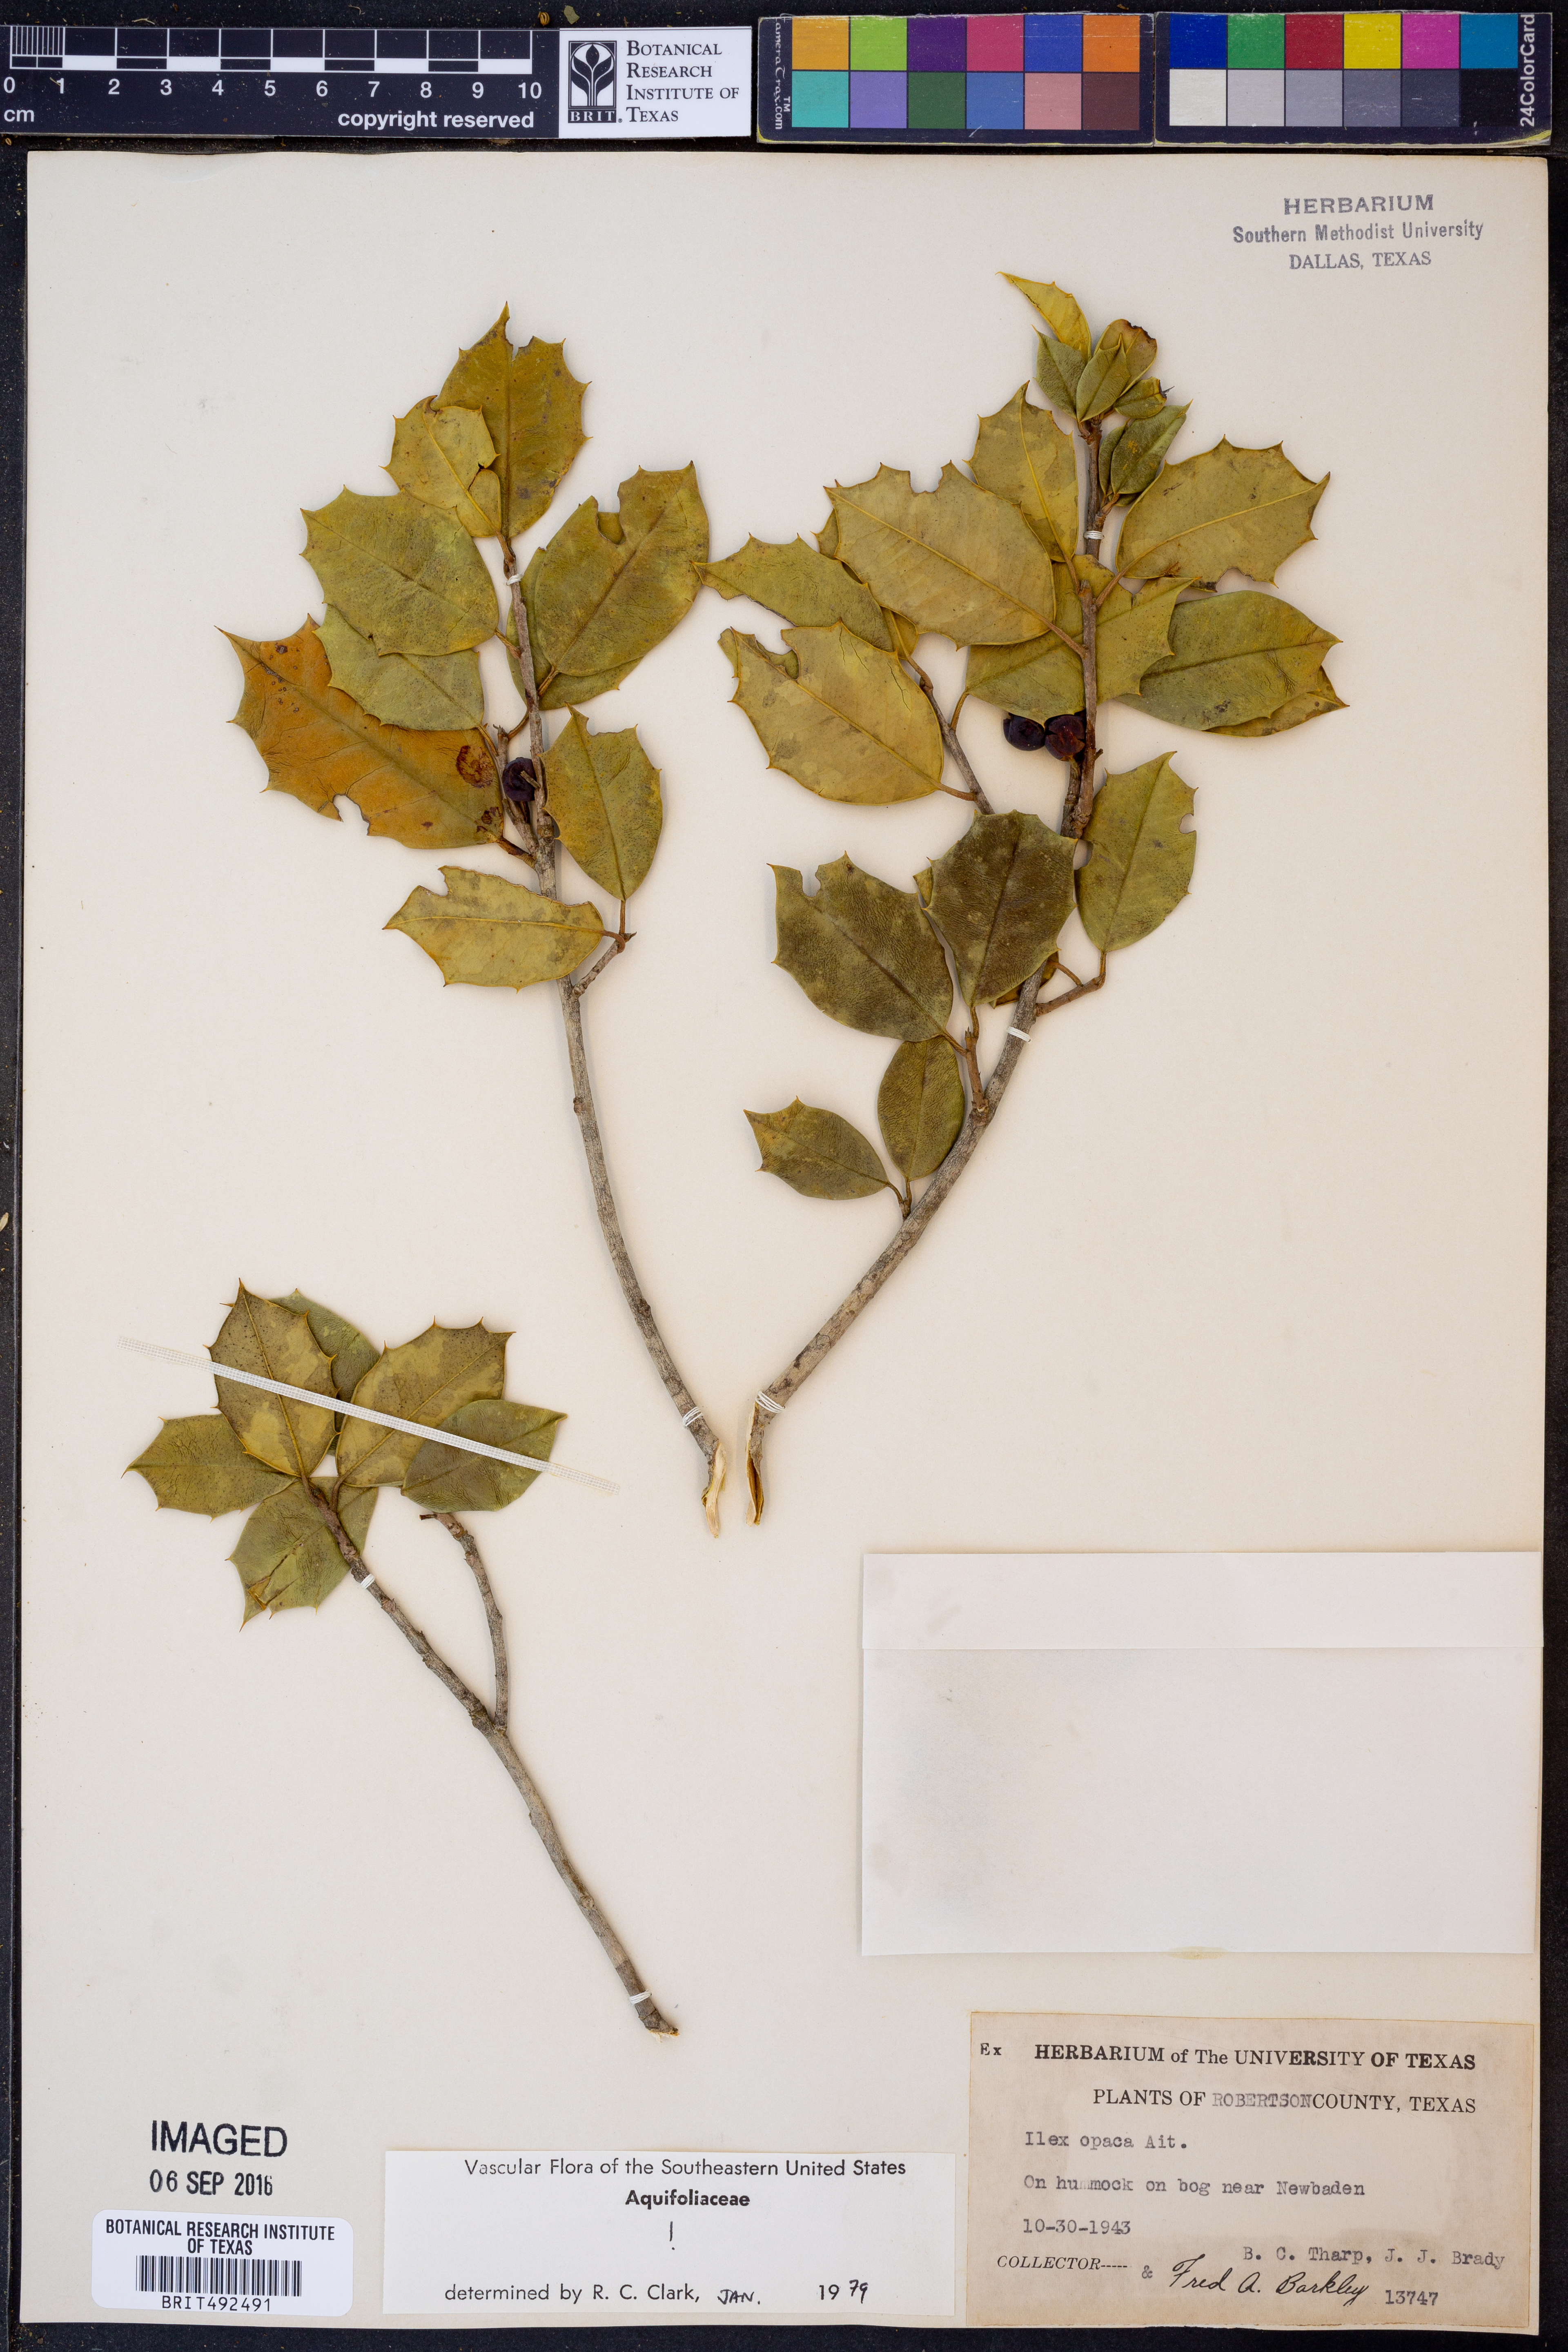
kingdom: Plantae
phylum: Tracheophyta
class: Magnoliopsida
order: Aquifoliales
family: Aquifoliaceae
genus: Ilex
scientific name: Ilex opaca
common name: American holly
